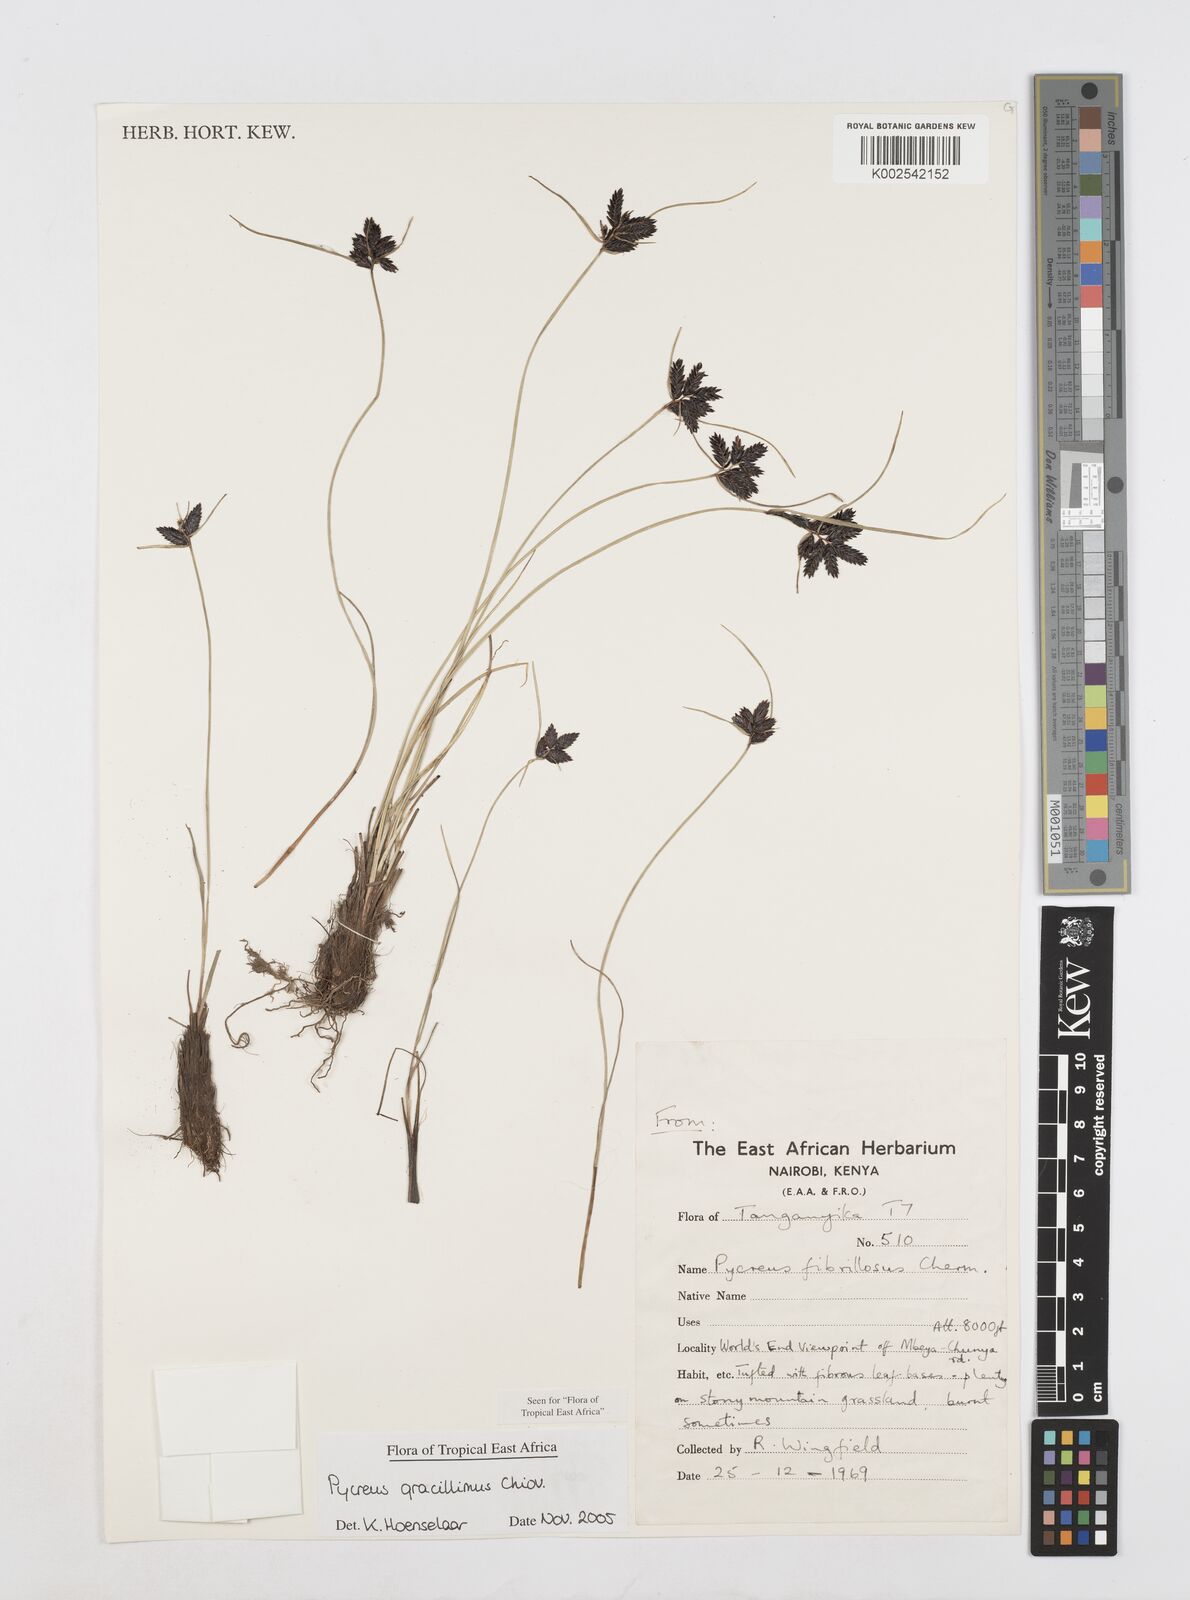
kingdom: Plantae
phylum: Tracheophyta
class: Liliopsida
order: Poales
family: Cyperaceae
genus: Cyperus
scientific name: Cyperus gracillimus
